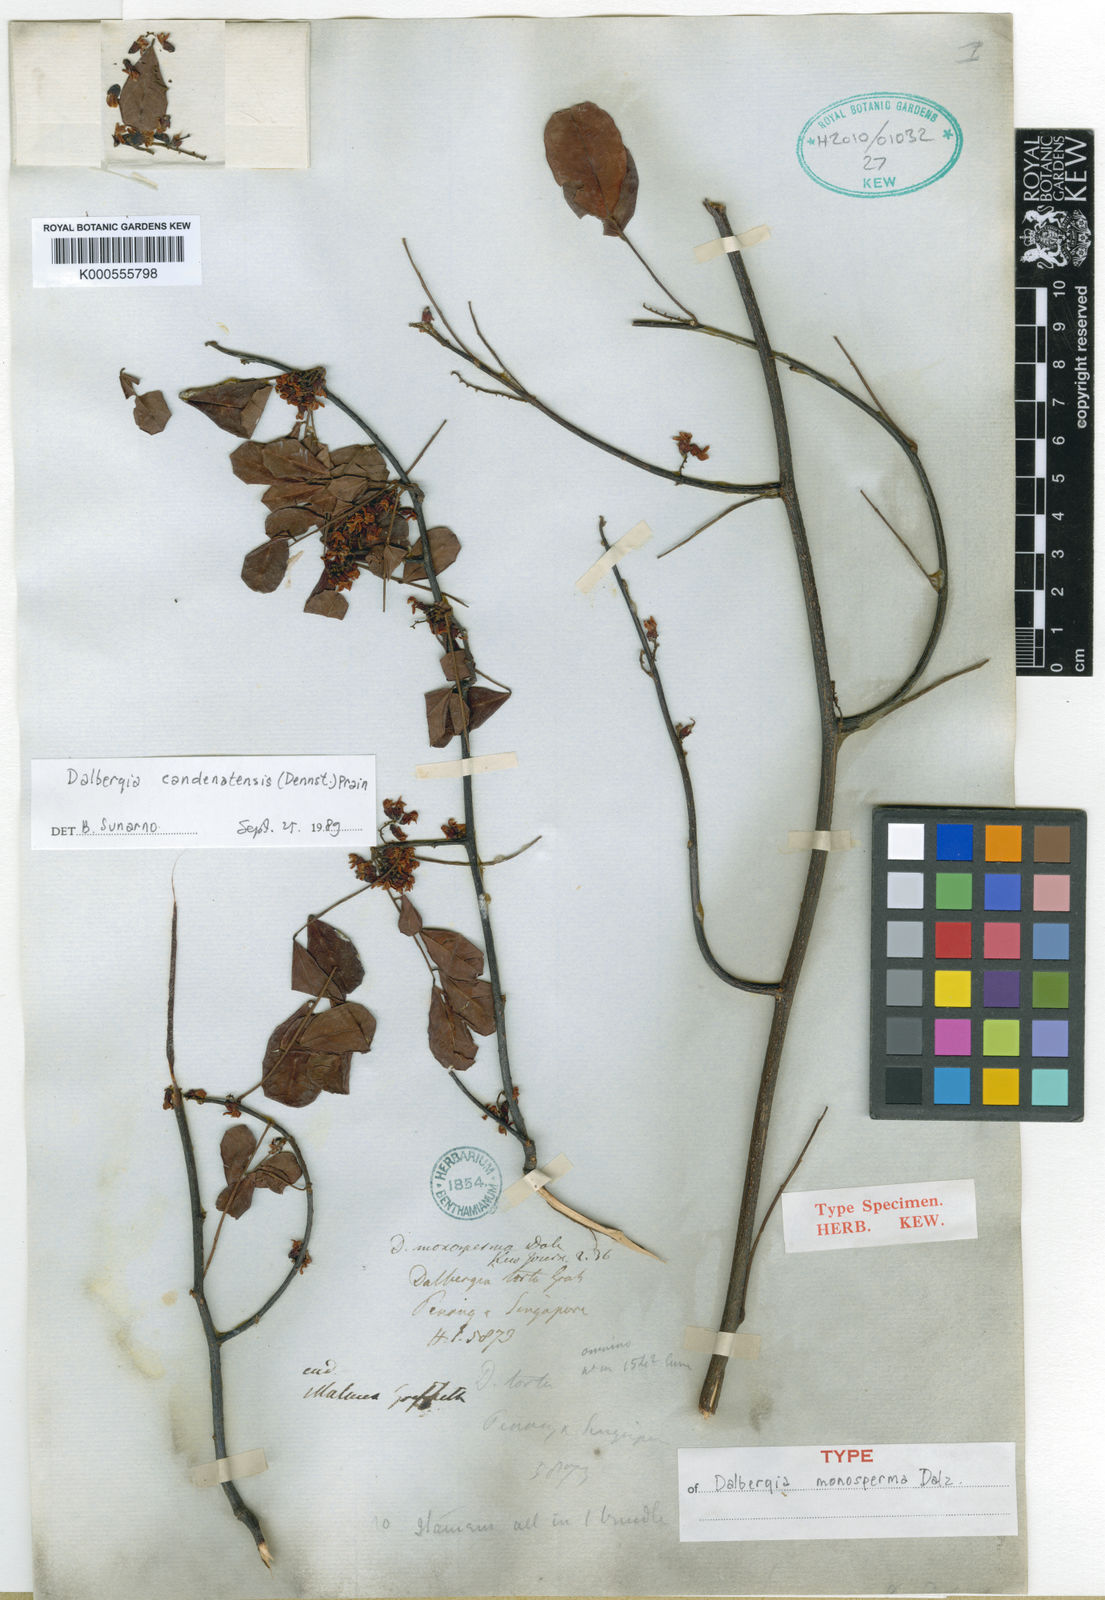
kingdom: Plantae
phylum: Tracheophyta
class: Magnoliopsida
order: Fabales
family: Fabaceae
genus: Dalbergia
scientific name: Dalbergia
